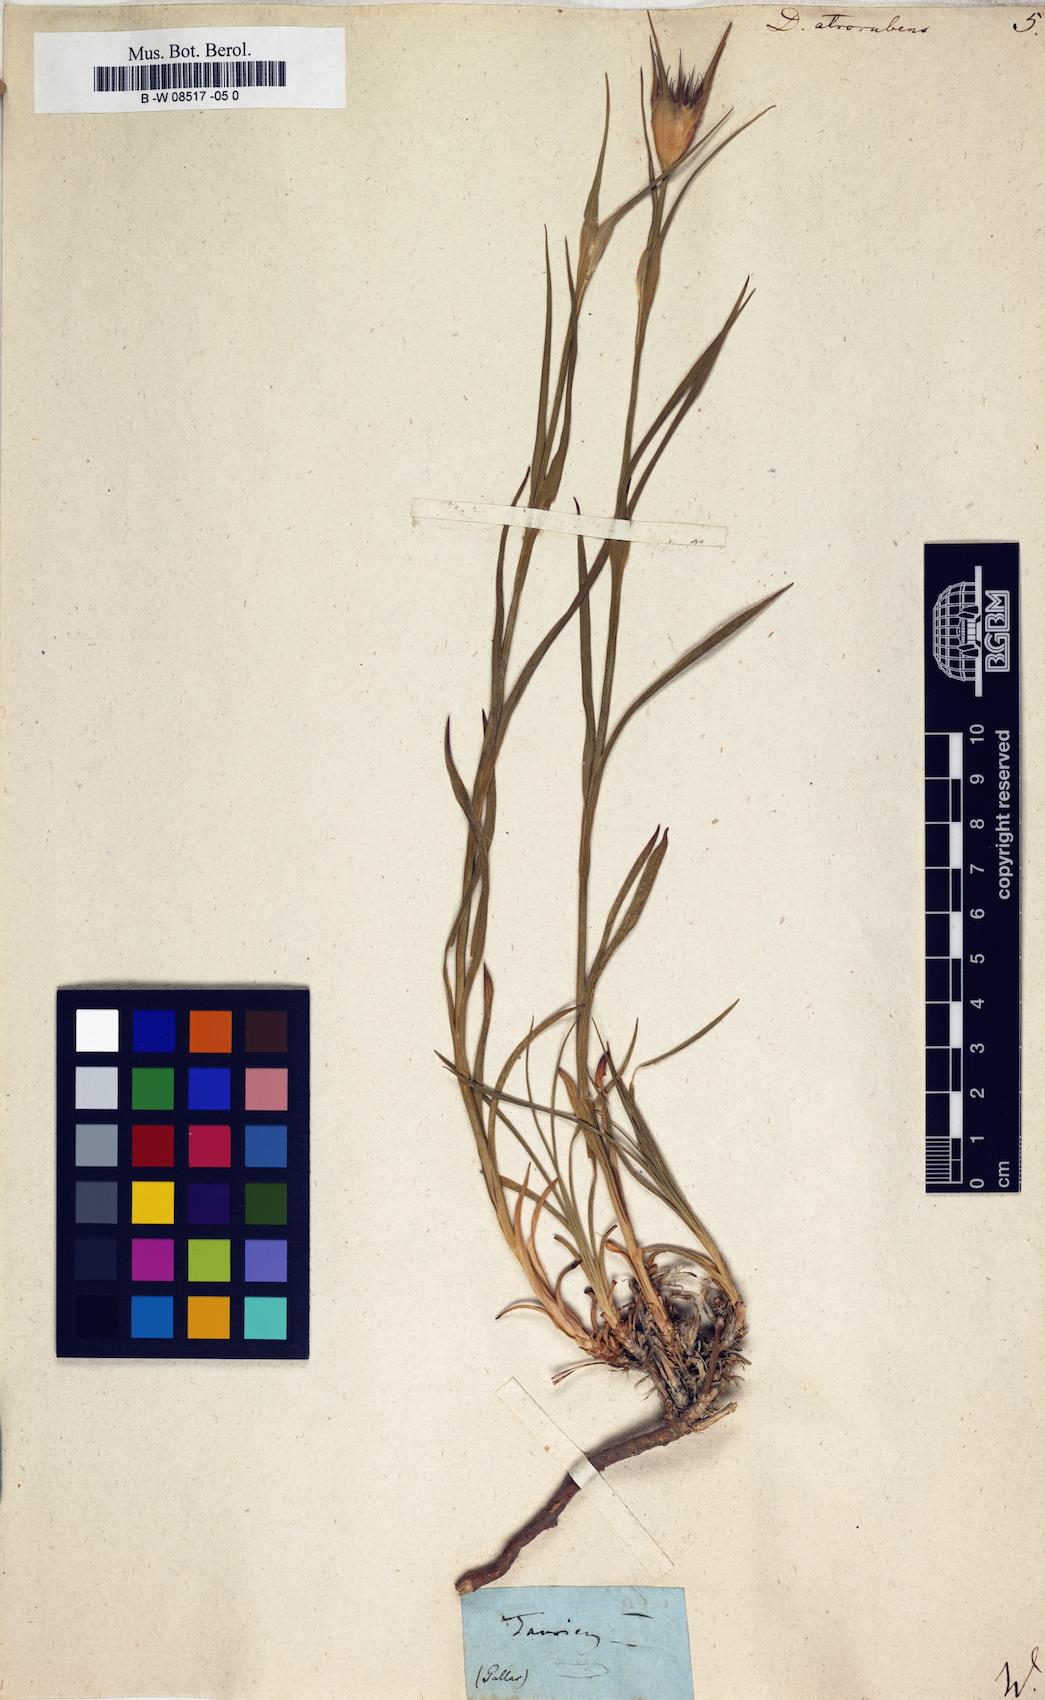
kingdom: Plantae
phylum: Tracheophyta
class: Magnoliopsida
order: Caryophyllales
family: Caryophyllaceae
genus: Dianthus
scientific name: Dianthus atrorubens
